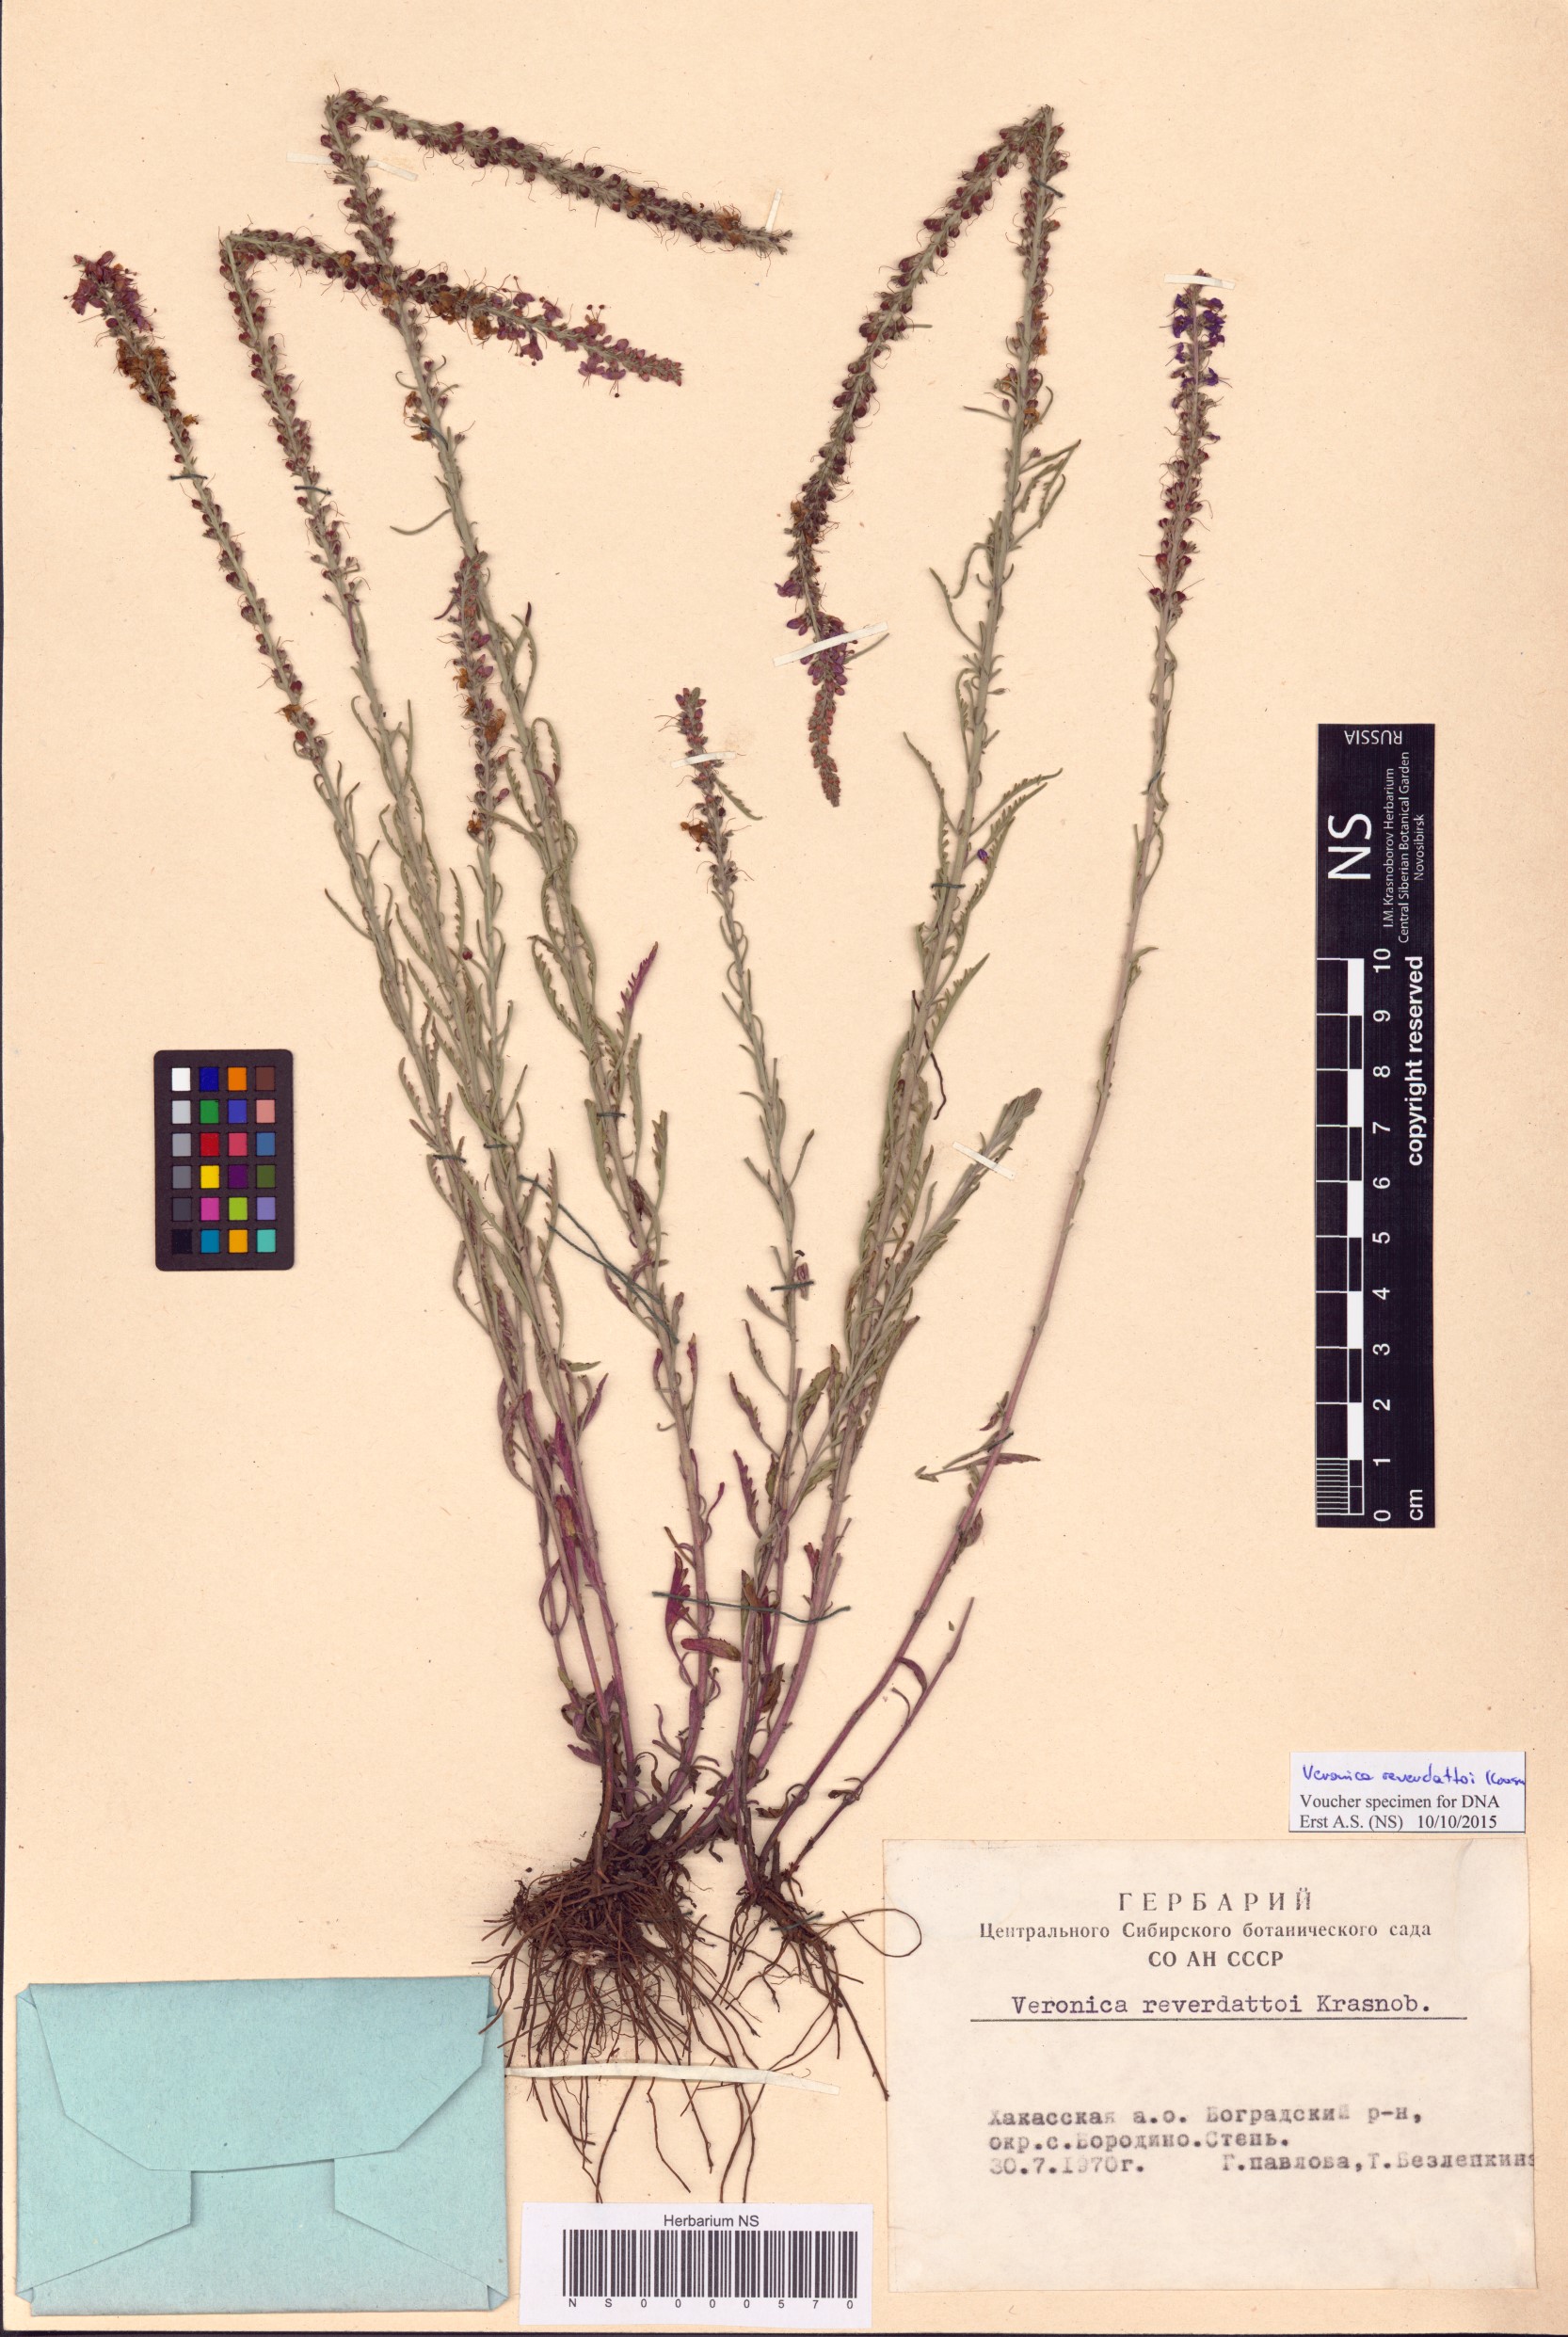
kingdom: Plantae
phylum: Tracheophyta
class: Magnoliopsida
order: Lamiales
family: Plantaginaceae
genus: Veronica
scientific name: Veronica reverdattoi
